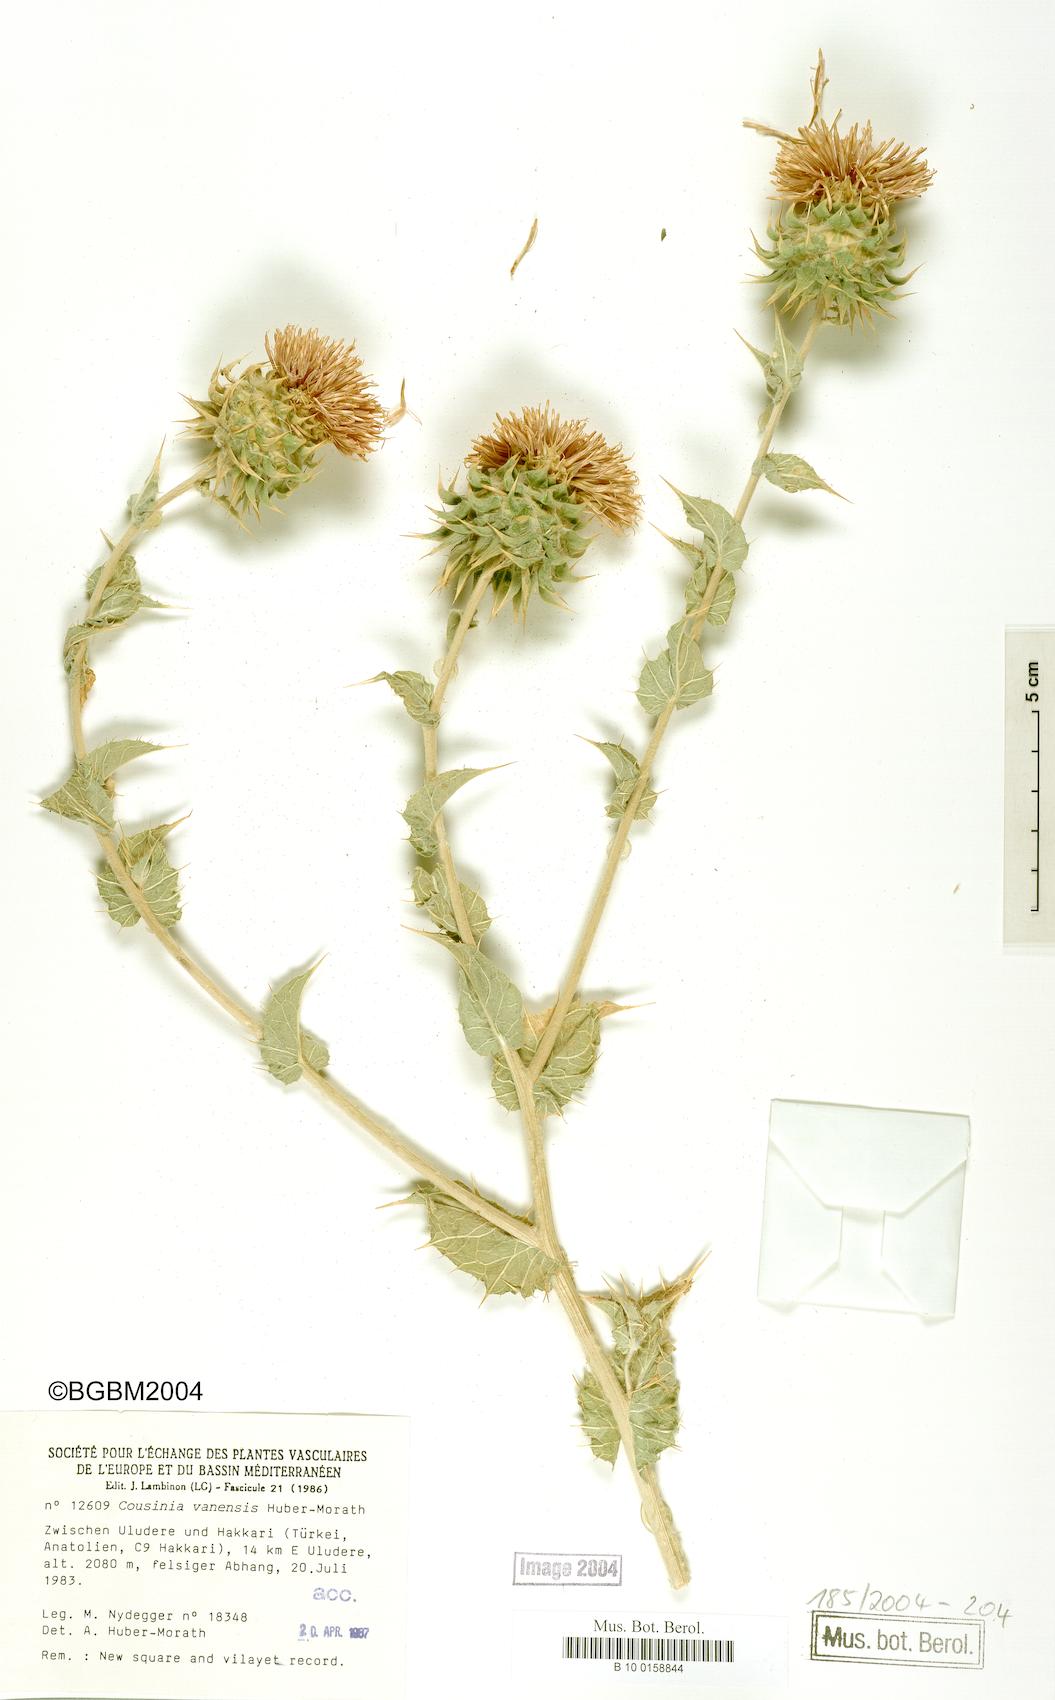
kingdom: Plantae
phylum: Tracheophyta
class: Magnoliopsida
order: Asterales
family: Asteraceae
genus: Cousinia
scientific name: Cousinia calocephala
